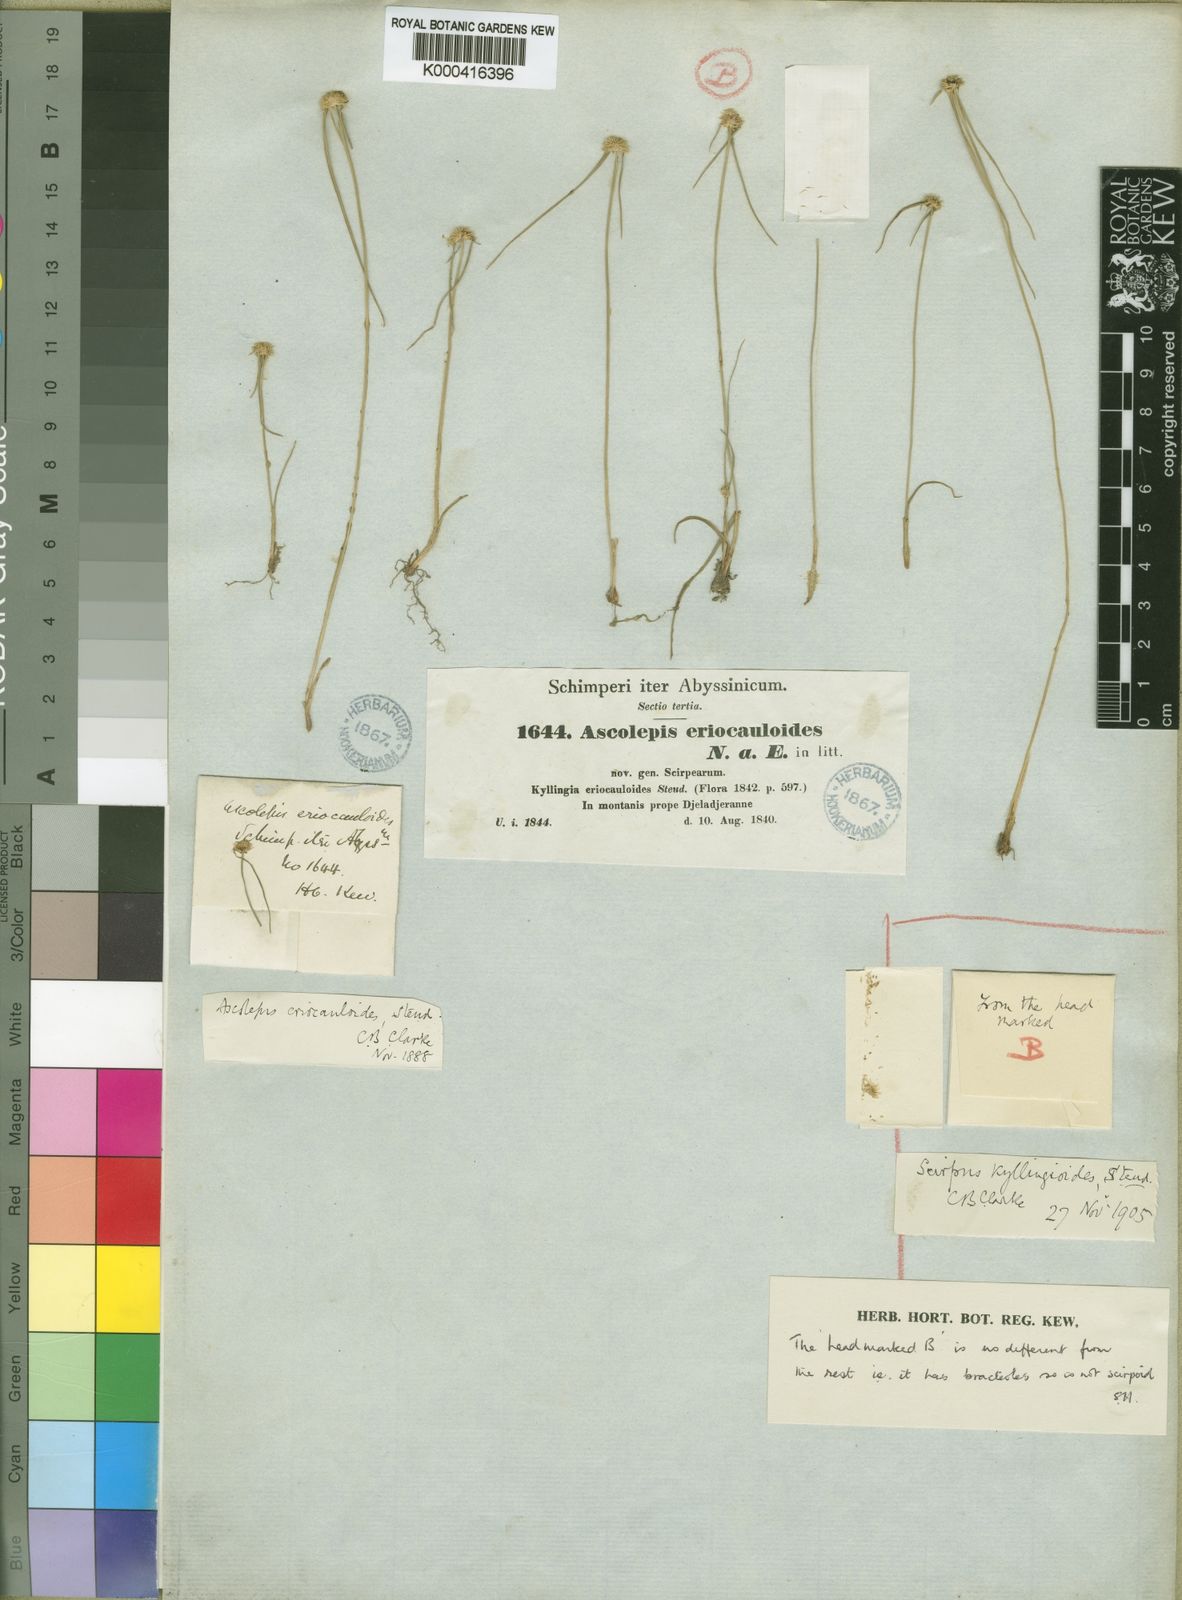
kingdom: Plantae
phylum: Tracheophyta
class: Liliopsida
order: Poales
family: Cyperaceae
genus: Cyperus
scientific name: Cyperus eriocauloides
